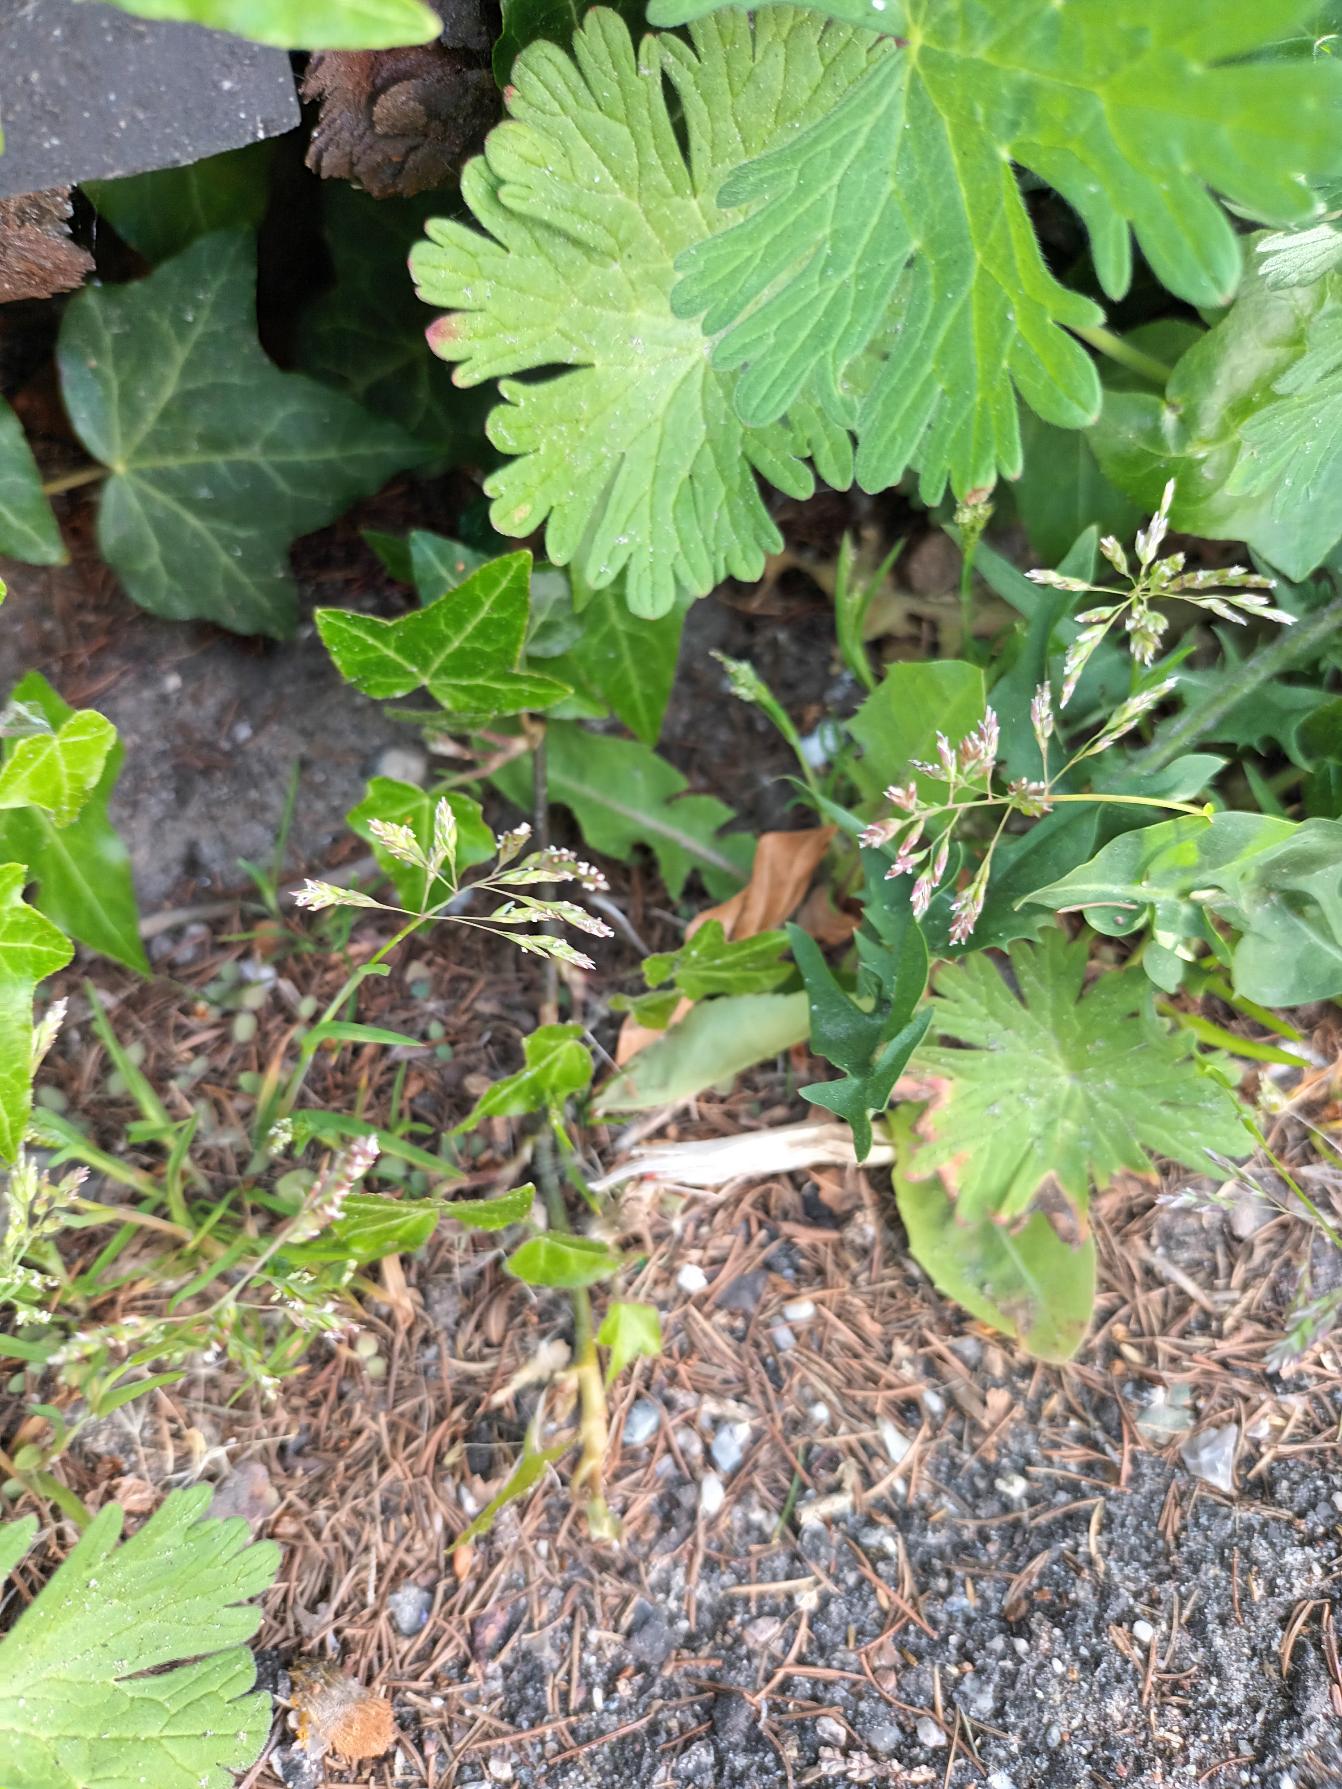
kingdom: Plantae
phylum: Tracheophyta
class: Liliopsida
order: Poales
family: Poaceae
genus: Poa
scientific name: Poa annua
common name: Enårig rapgræs
